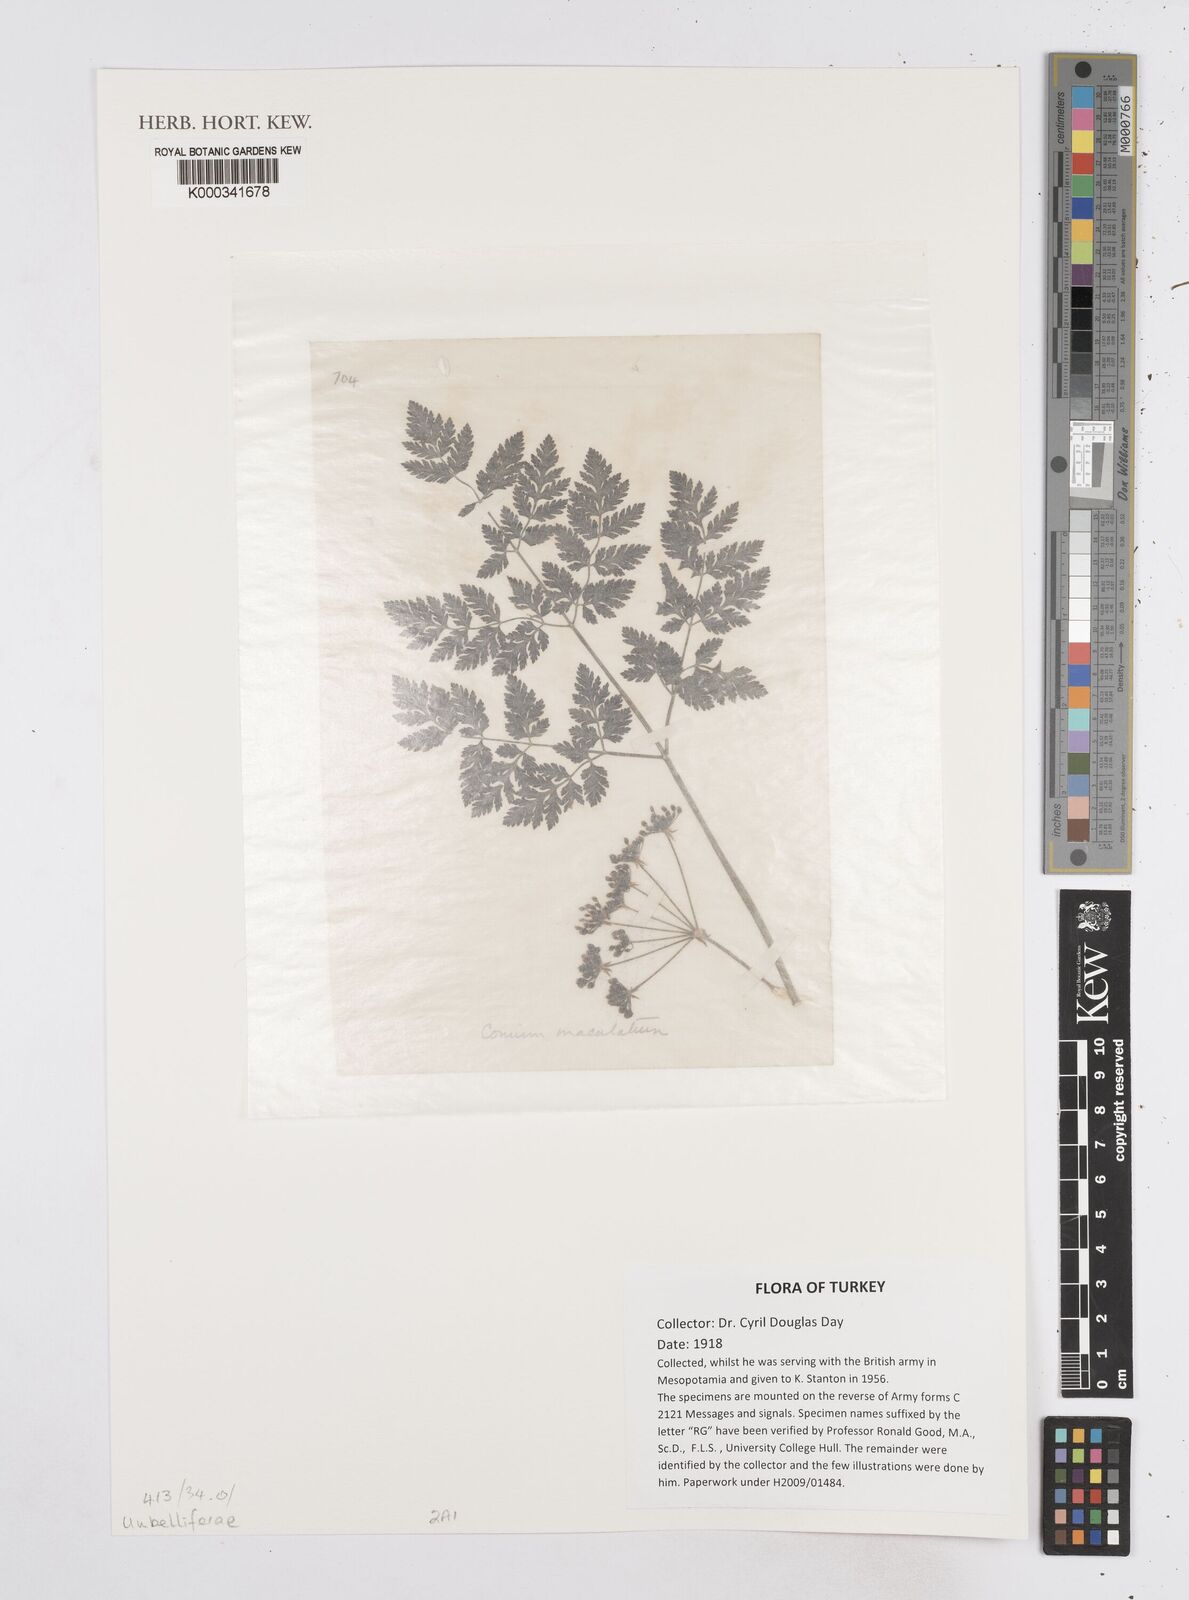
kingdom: Plantae
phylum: Tracheophyta
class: Magnoliopsida
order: Apiales
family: Apiaceae
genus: Conium
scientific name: Conium maculatum
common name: Hemlock
